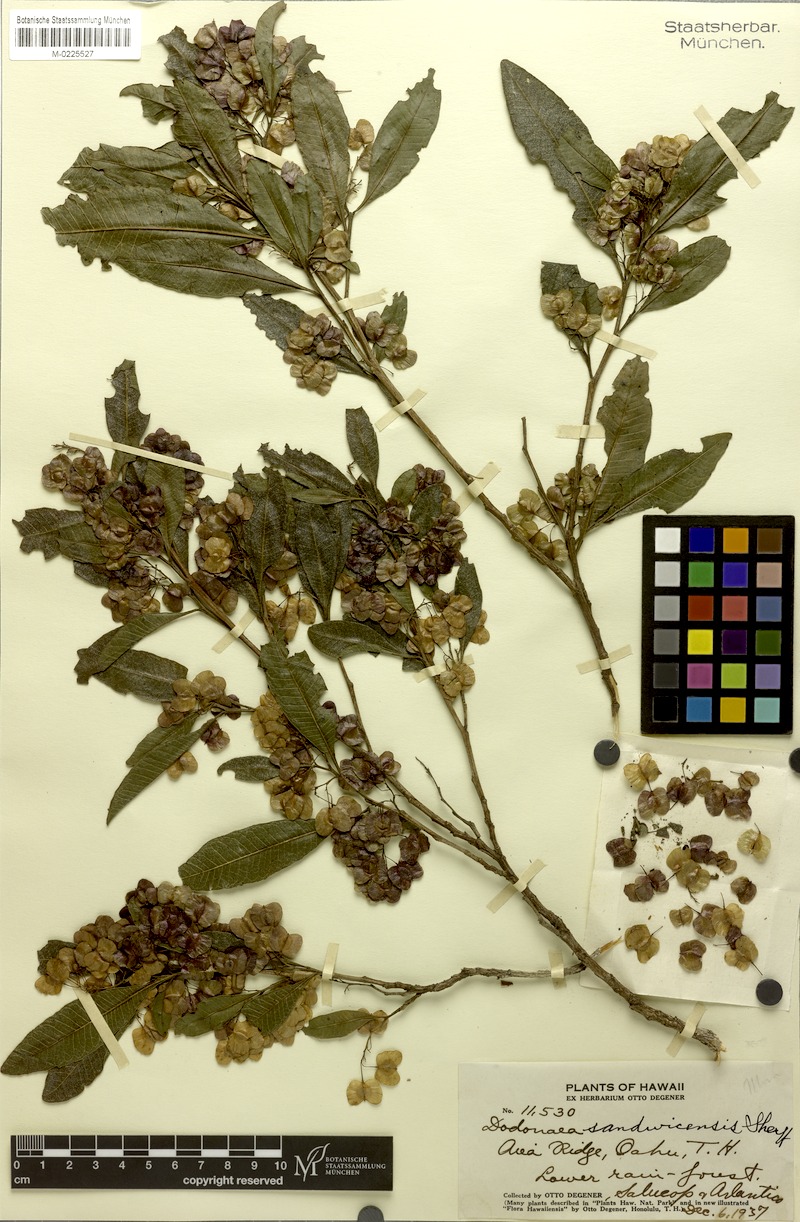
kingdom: Plantae
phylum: Tracheophyta
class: Magnoliopsida
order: Sapindales
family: Sapindaceae
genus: Dodonaea
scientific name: Dodonaea viscosa
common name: Hopbush
